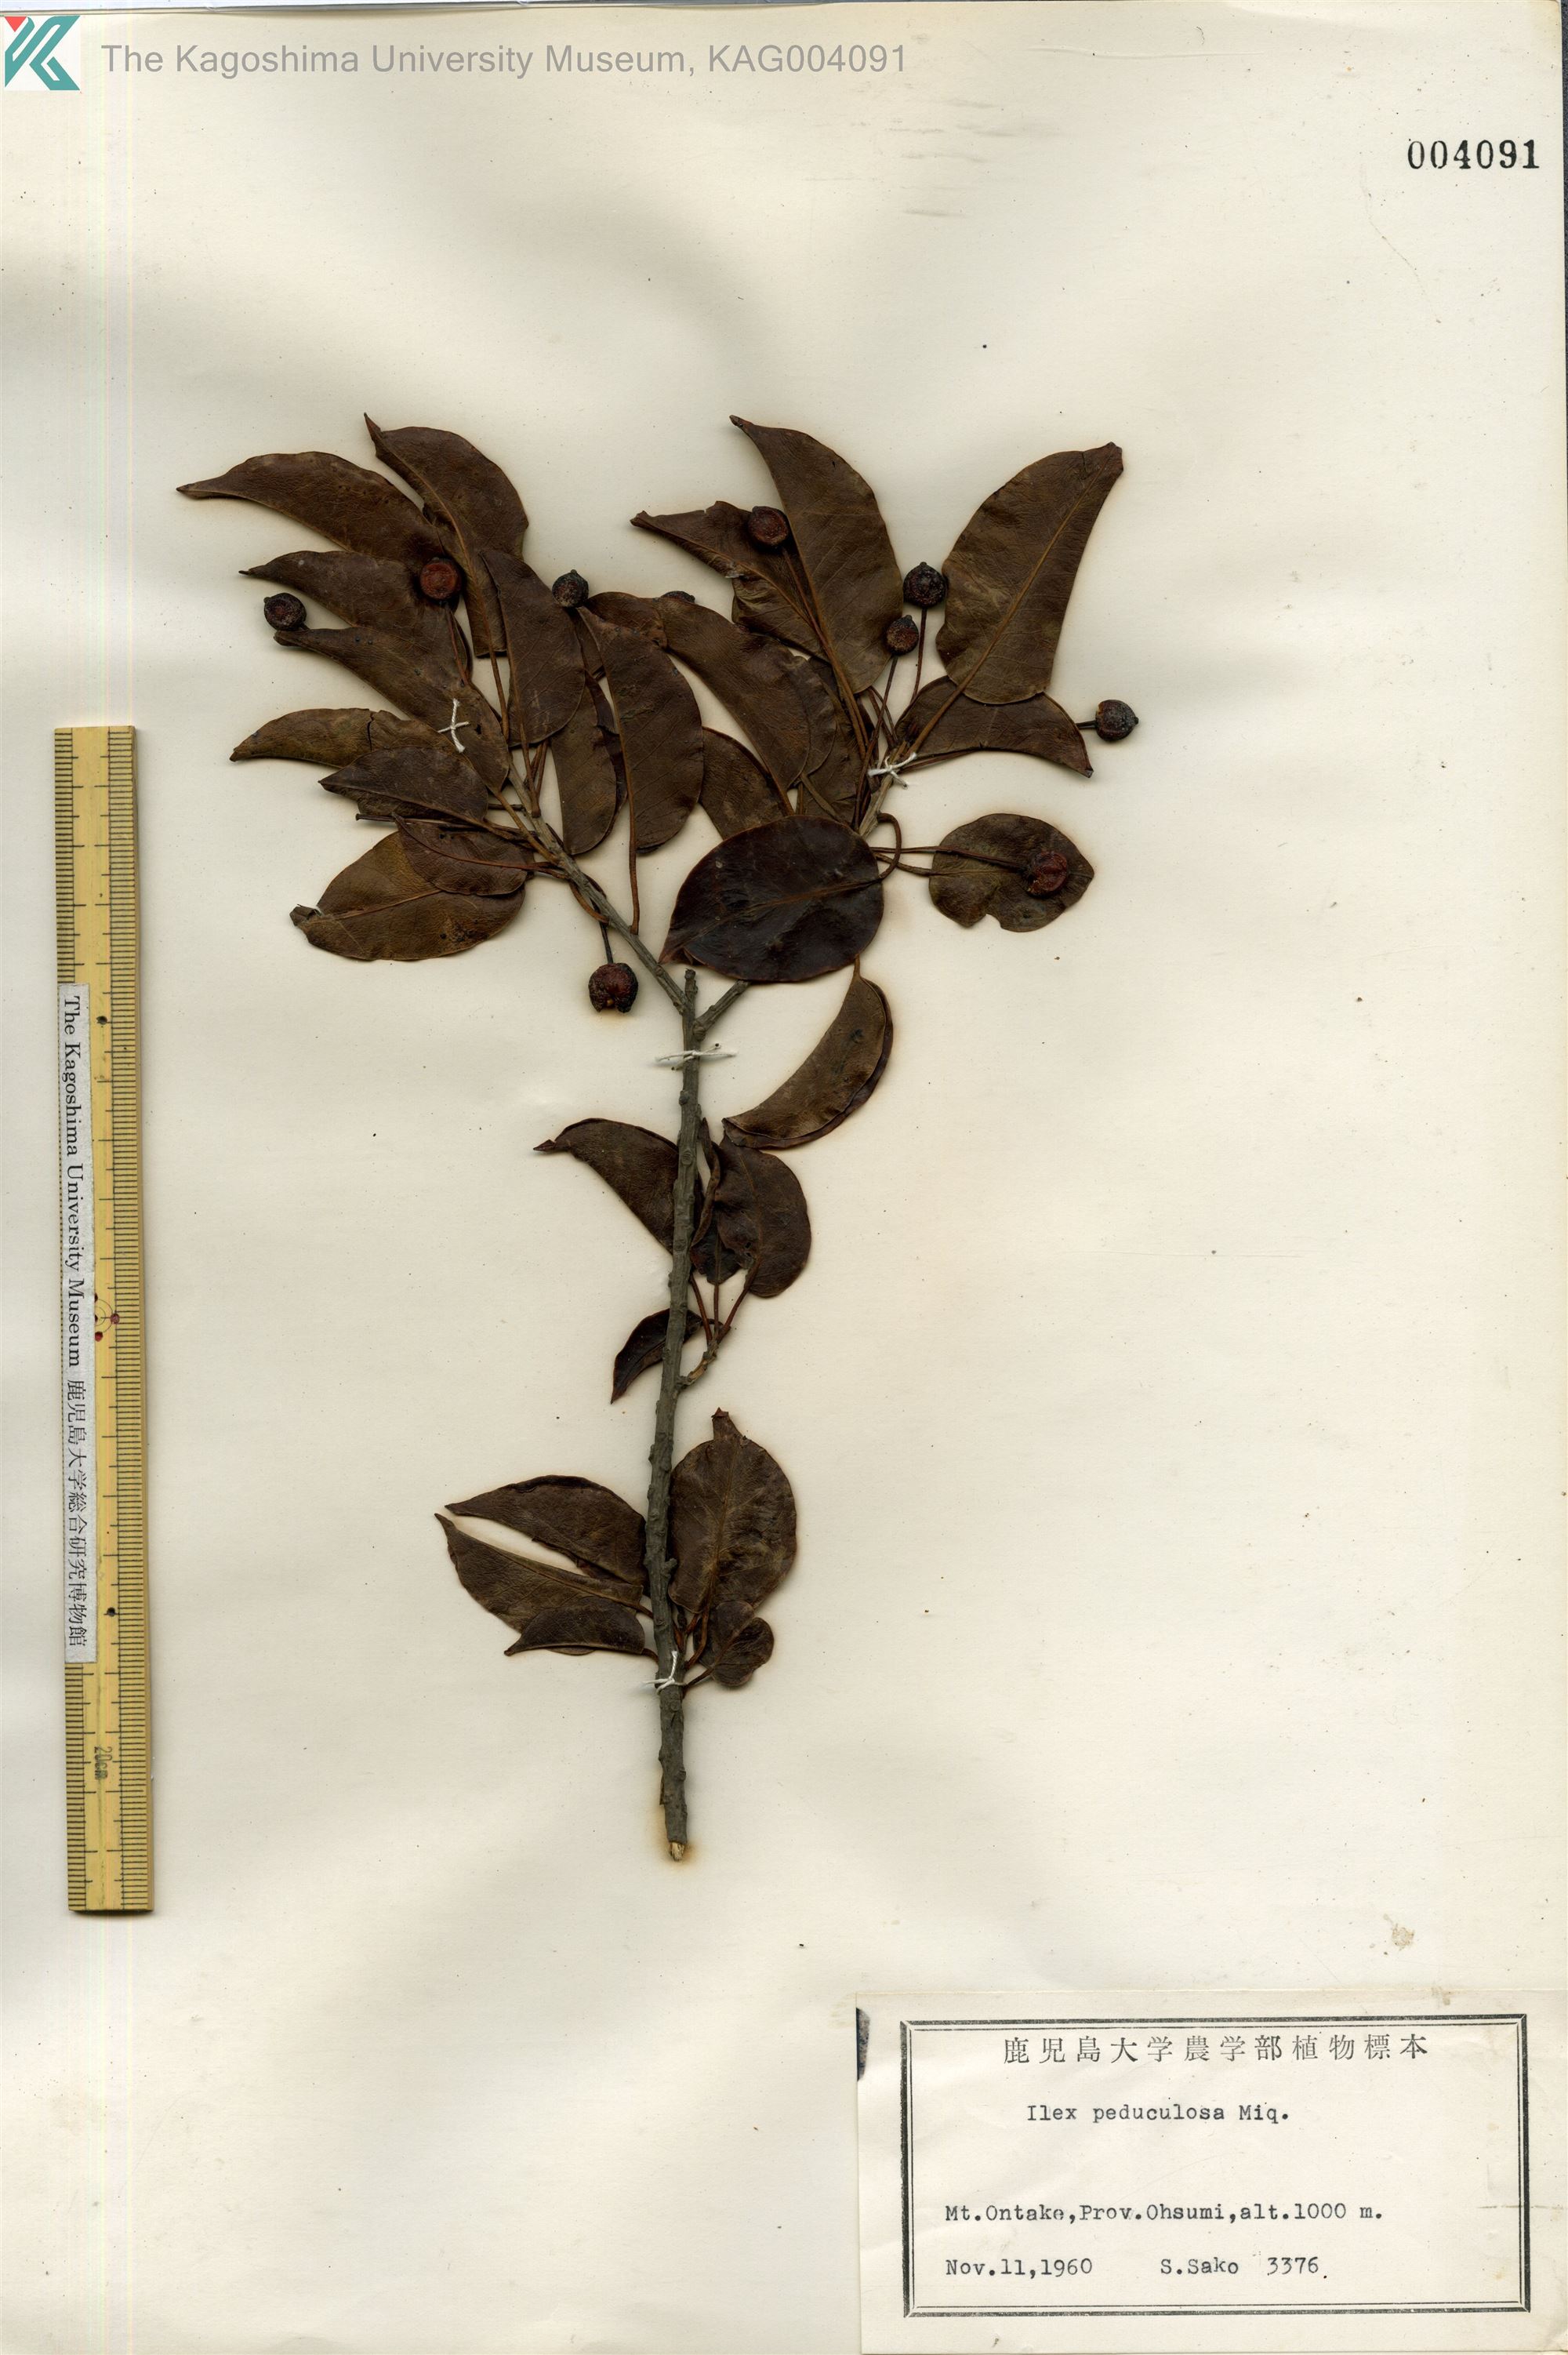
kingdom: Plantae
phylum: Tracheophyta
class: Magnoliopsida
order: Aquifoliales
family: Aquifoliaceae
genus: Ilex
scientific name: Ilex pedunculosa
